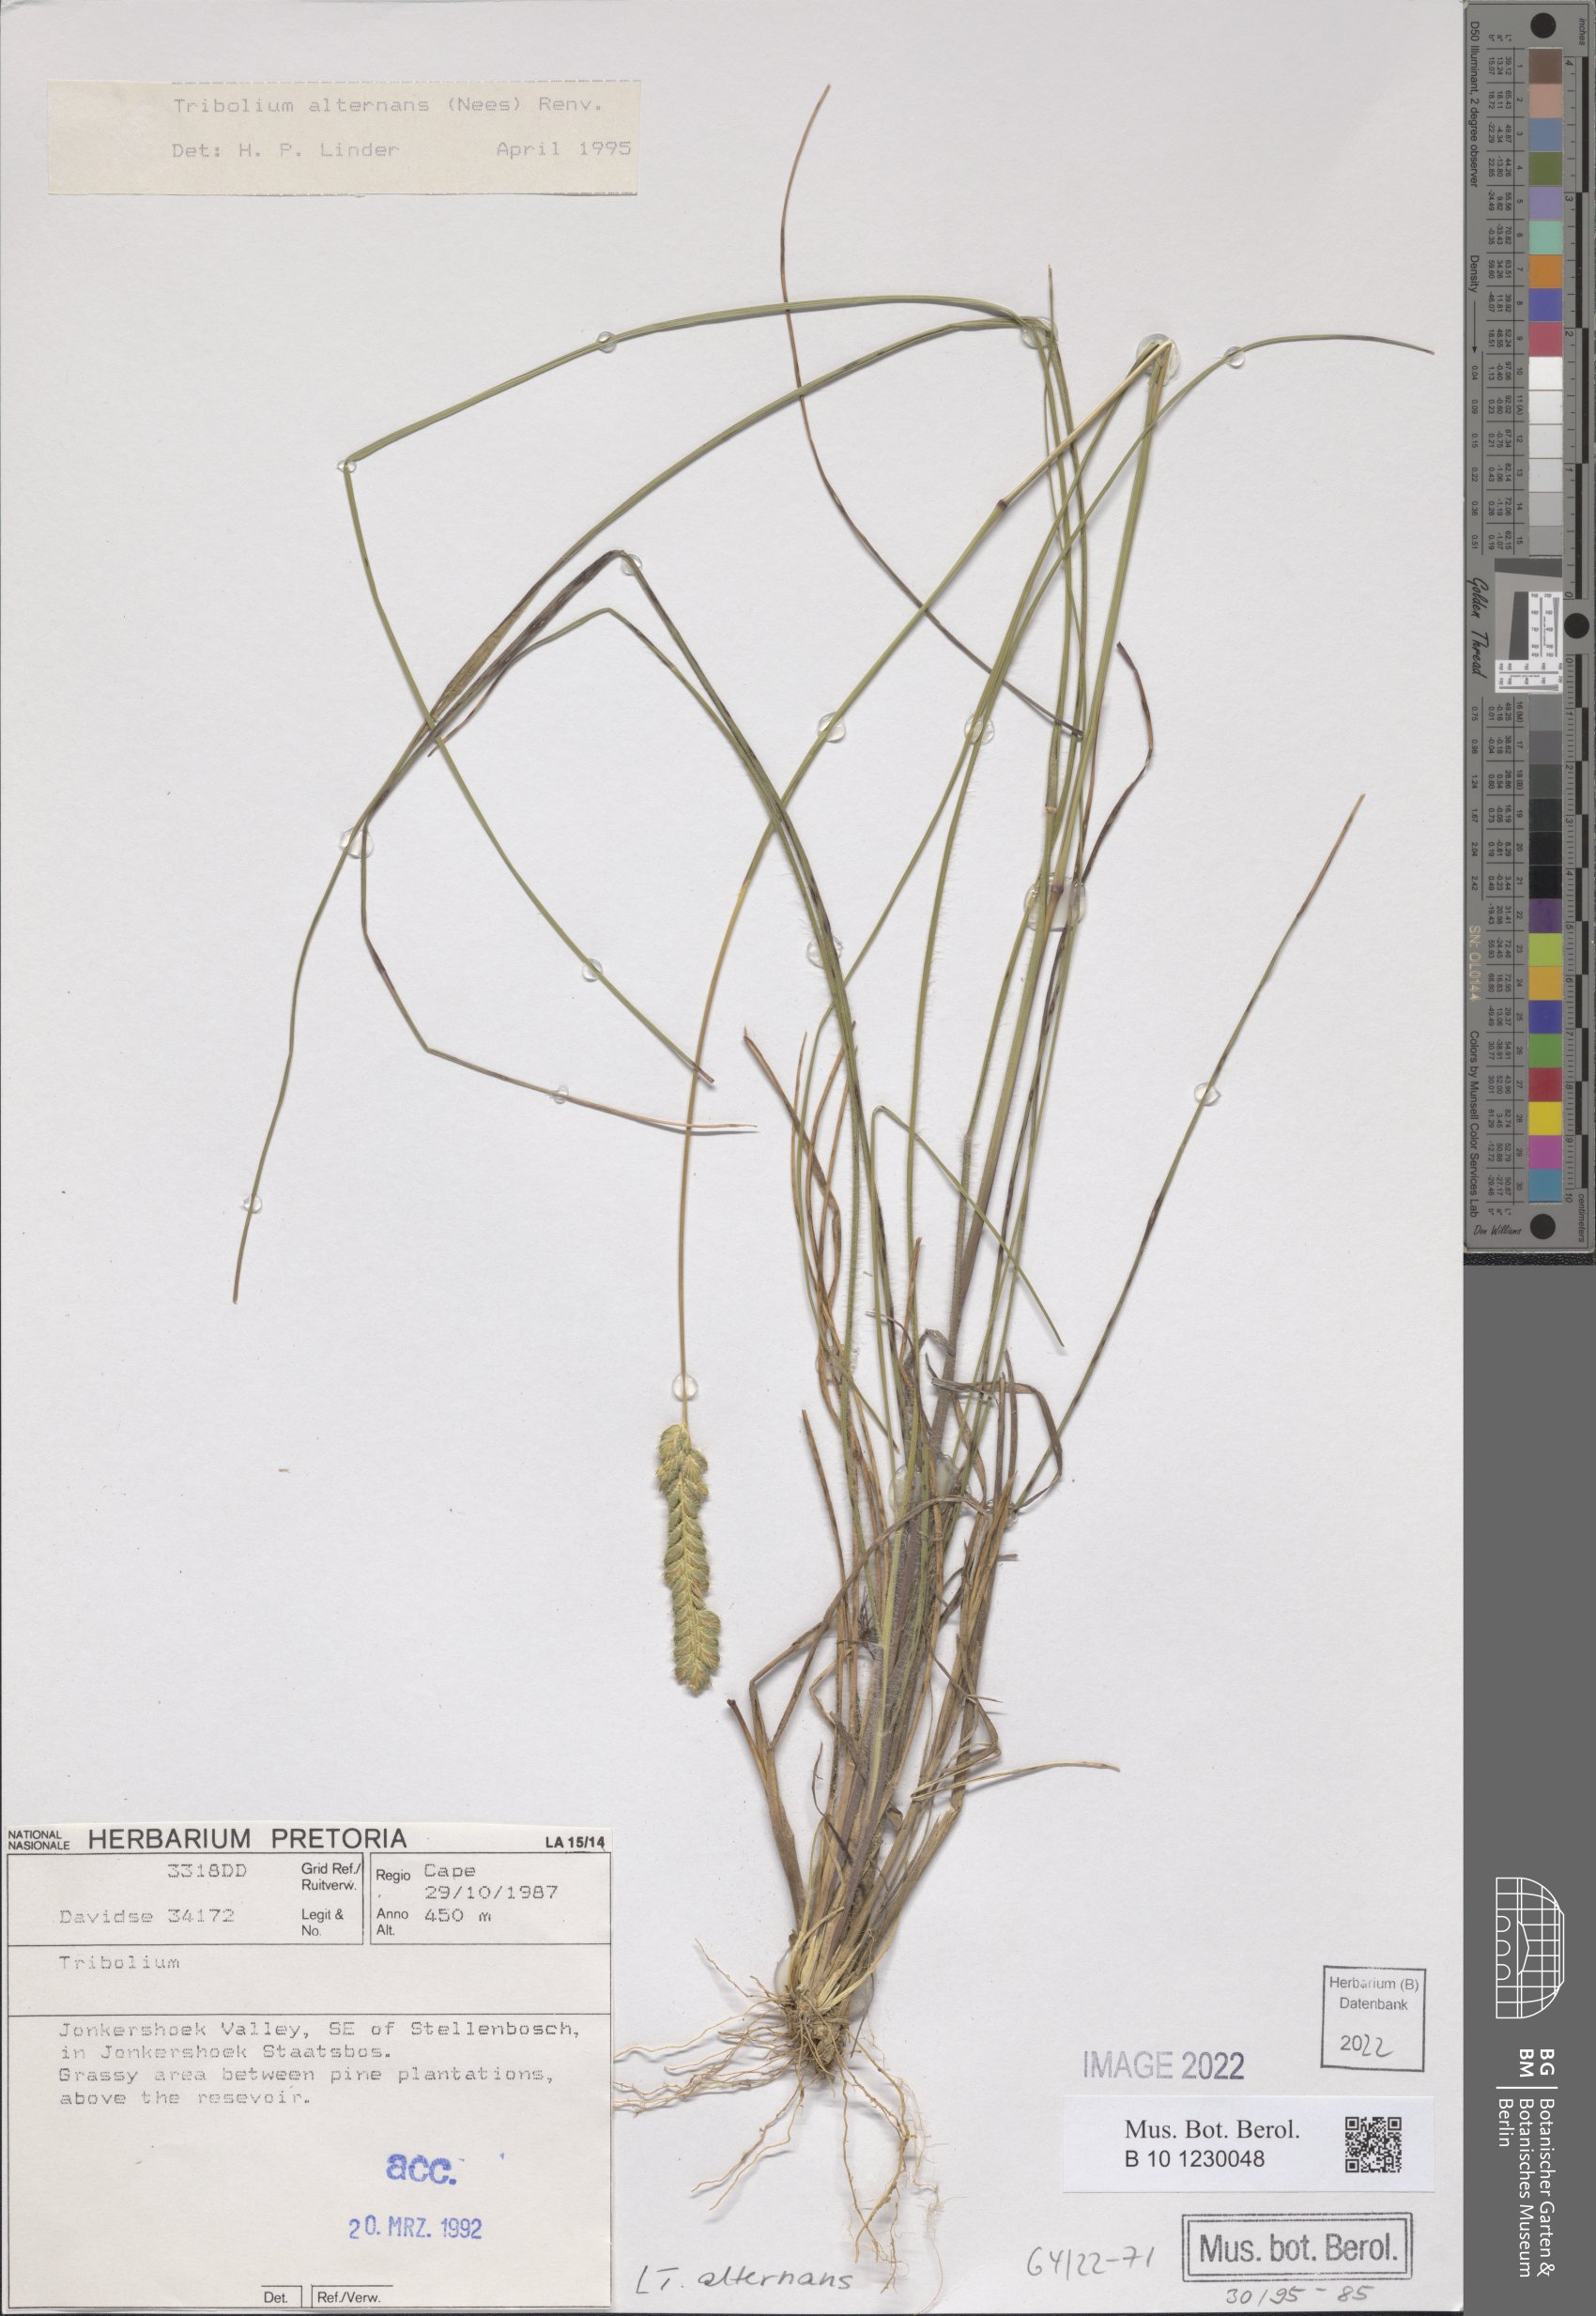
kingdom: Plantae
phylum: Tracheophyta
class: Liliopsida
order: Poales
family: Poaceae
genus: Tribolium
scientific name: Tribolium alternans
